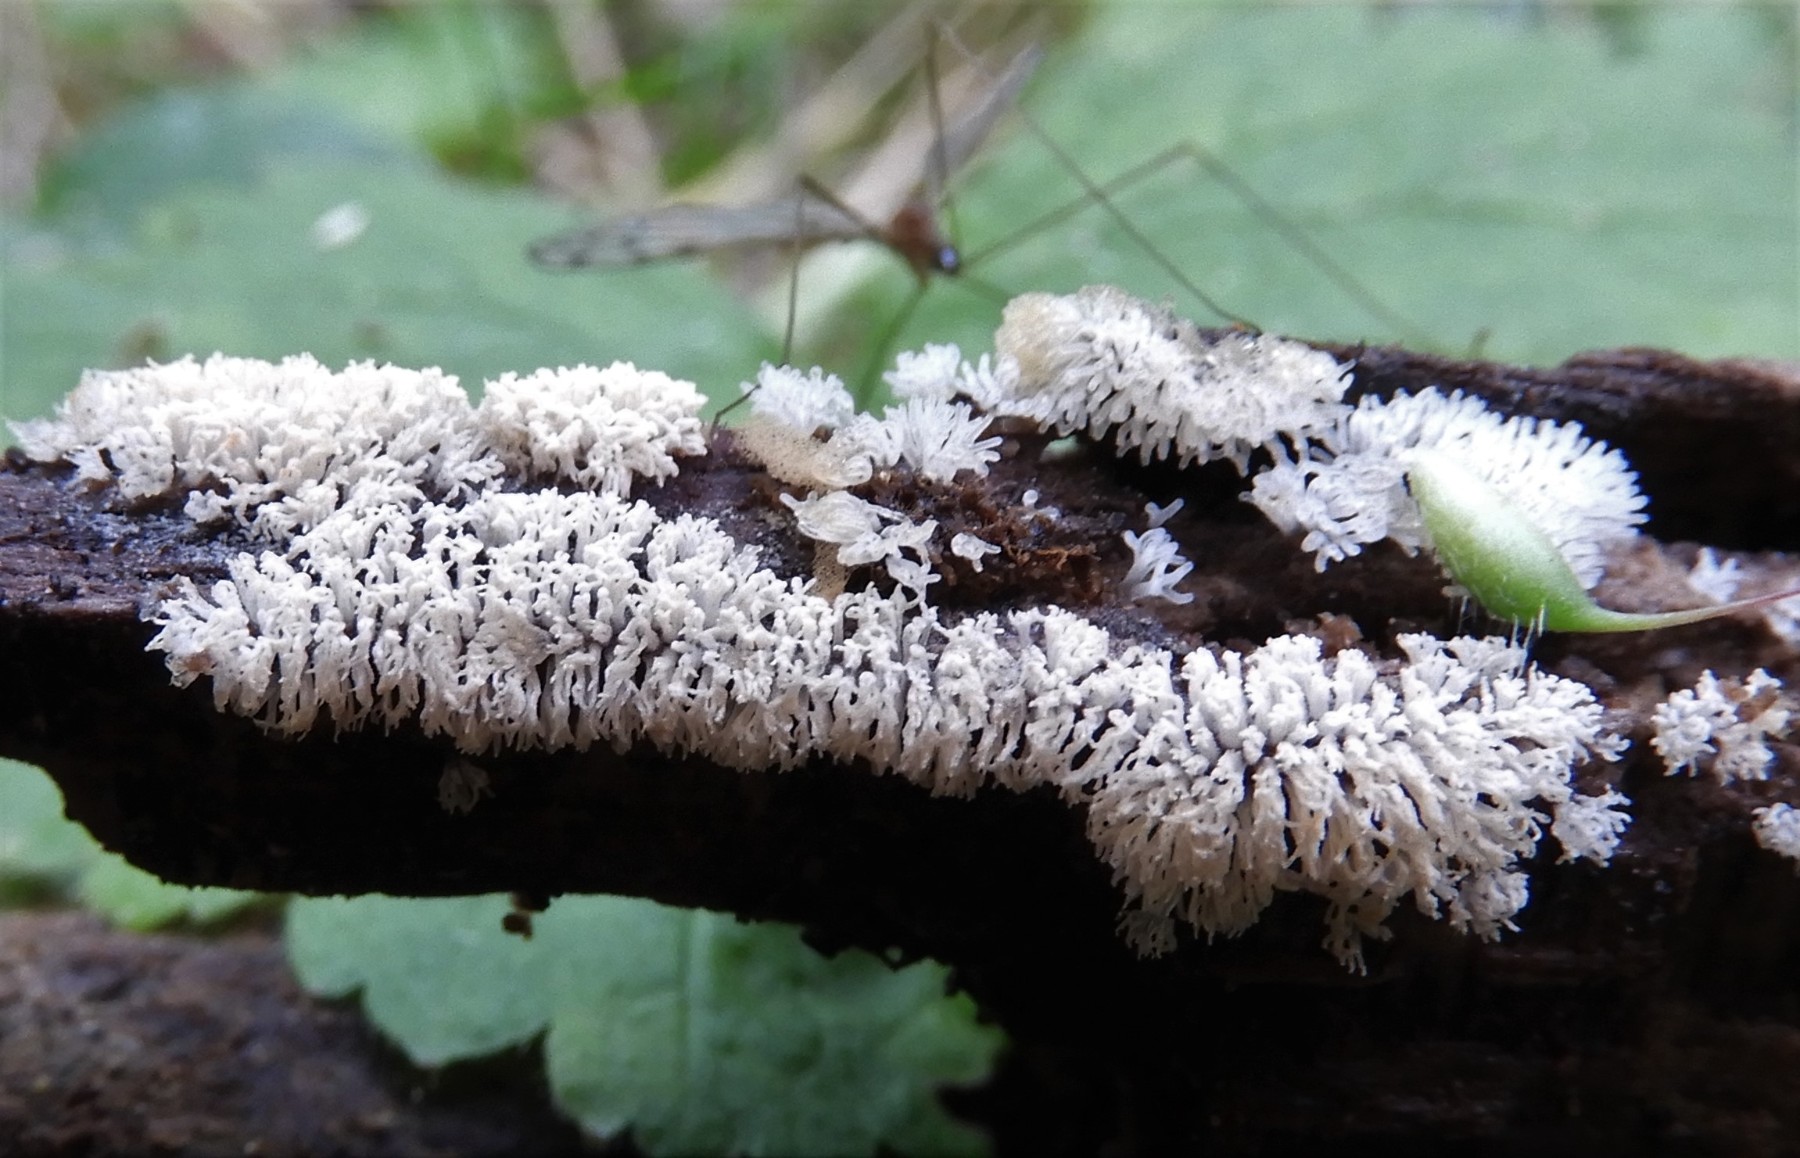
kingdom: Protozoa
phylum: Mycetozoa
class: Protosteliomycetes
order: Ceratiomyxales
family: Ceratiomyxaceae
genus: Ceratiomyxa
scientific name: Ceratiomyxa fruticulosa
